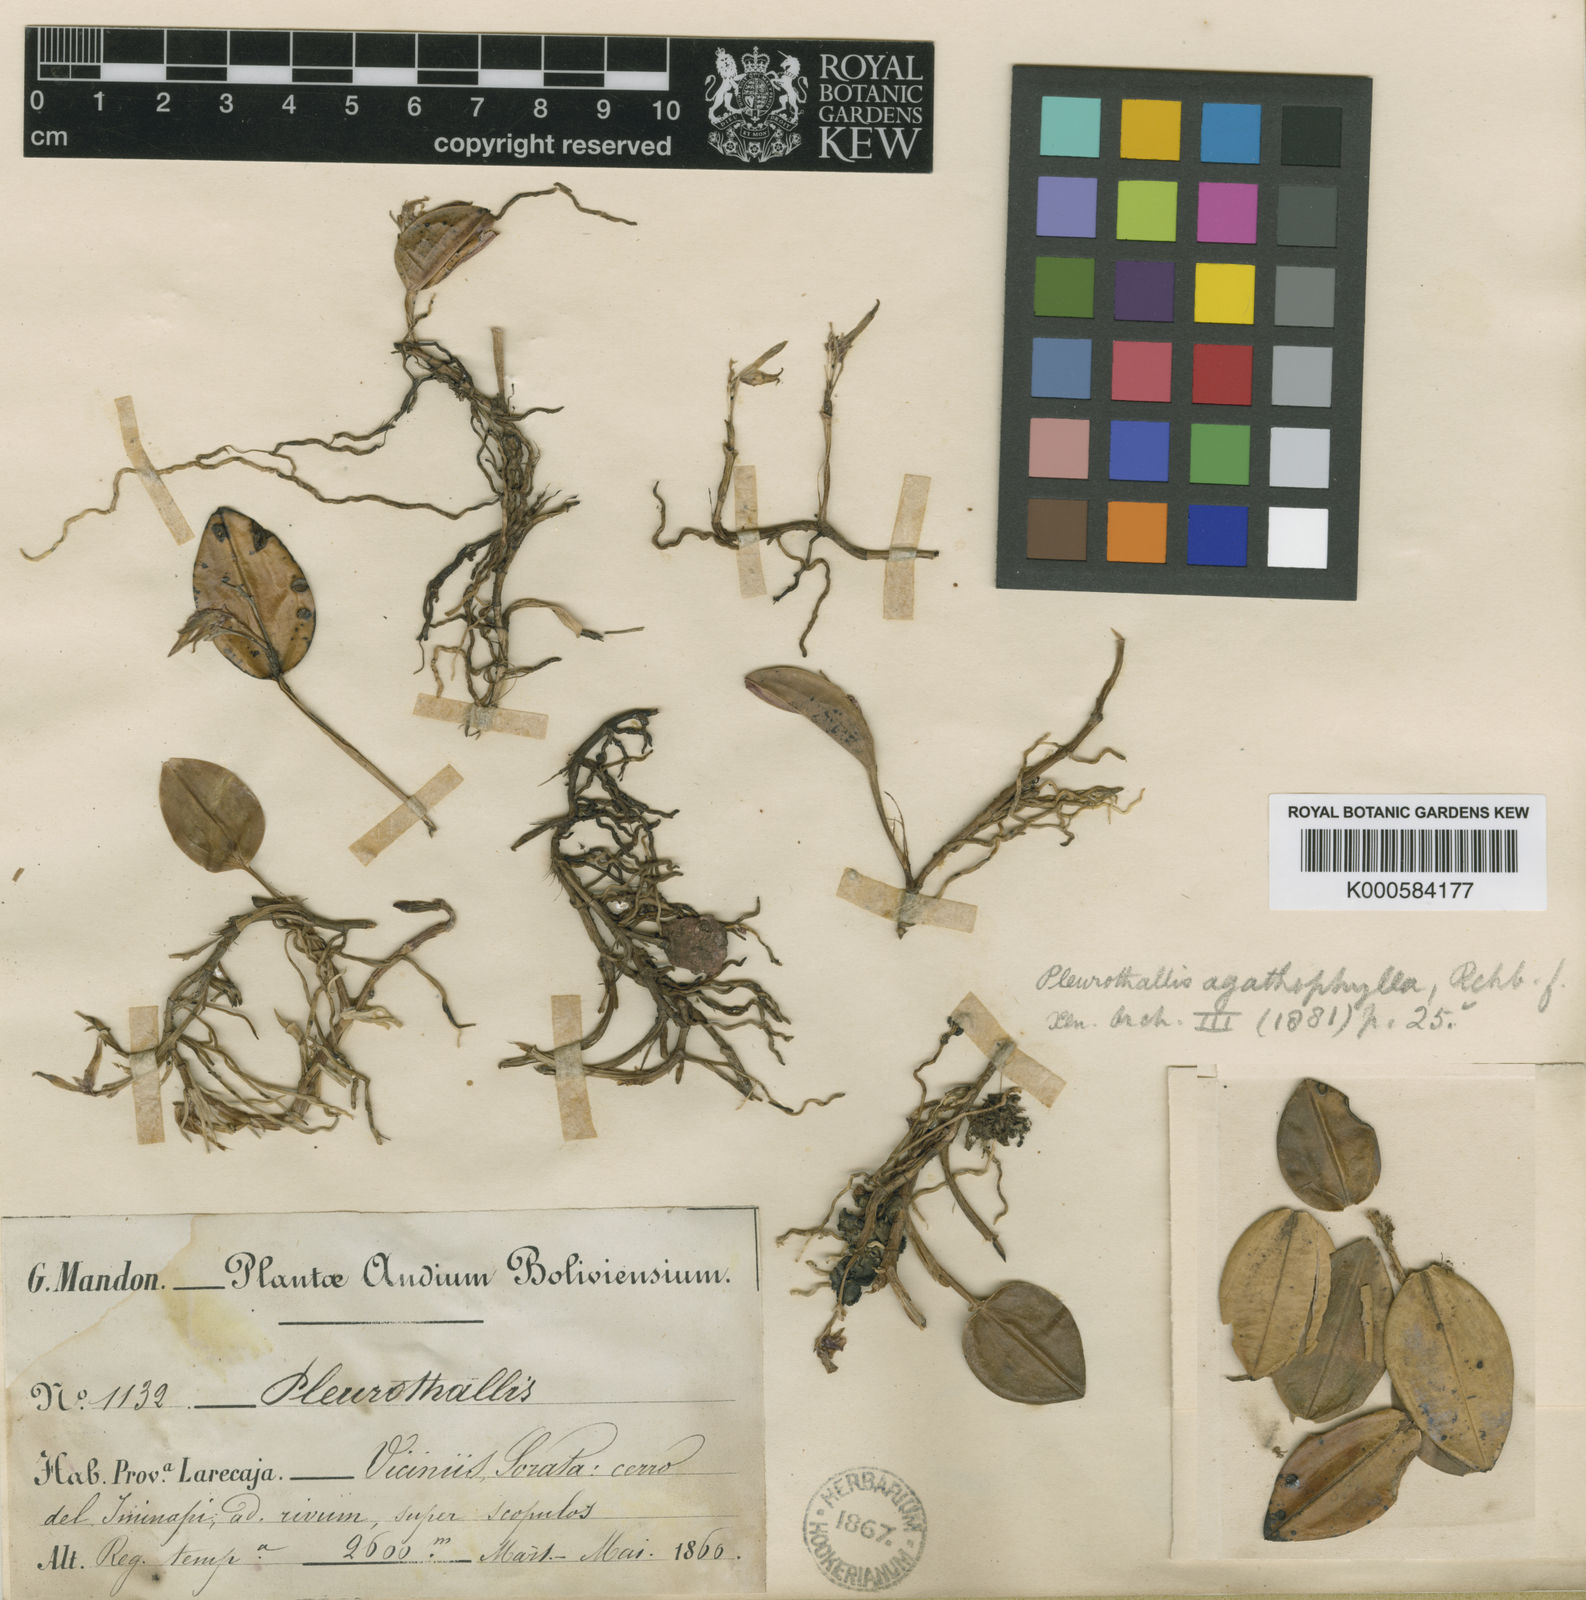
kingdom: Plantae
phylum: Tracheophyta
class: Liliopsida
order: Asparagales
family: Orchidaceae
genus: Acianthera
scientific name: Acianthera agathophylla
